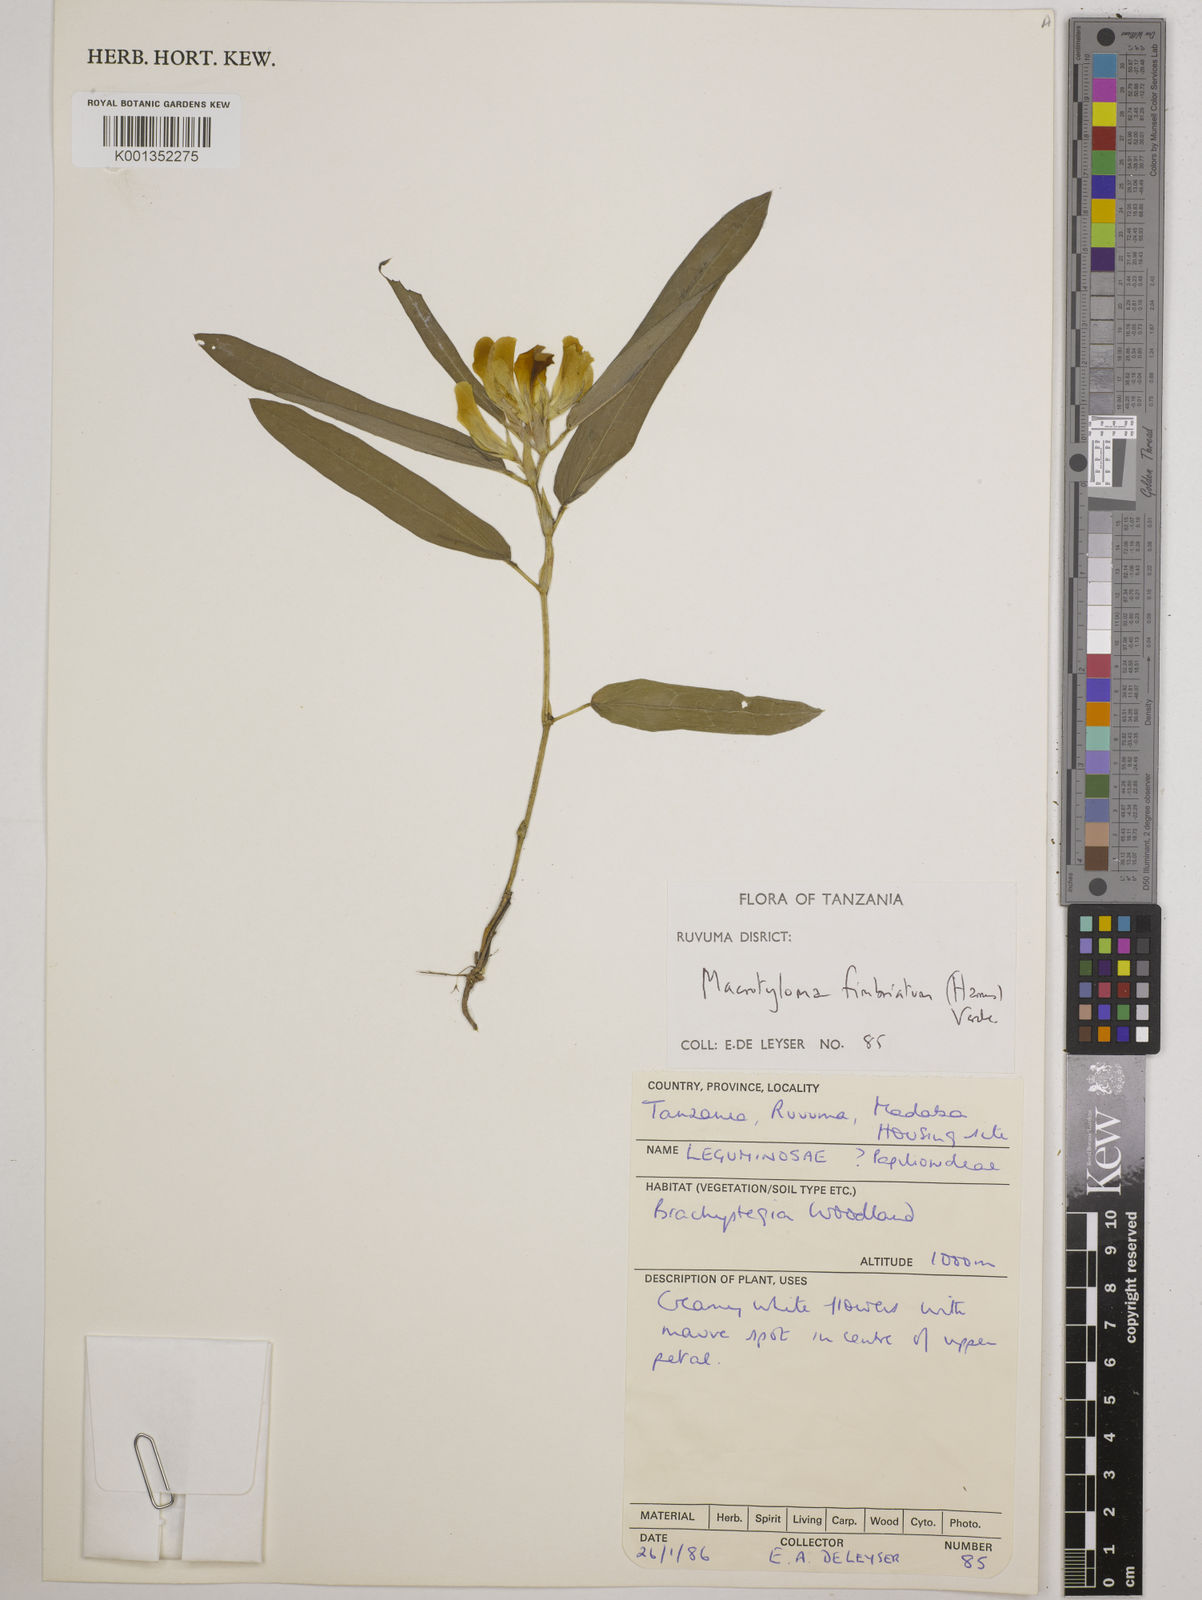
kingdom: Plantae
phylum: Tracheophyta
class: Magnoliopsida
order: Fabales
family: Fabaceae
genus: Macrotyloma
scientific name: Macrotyloma fimbriatum
